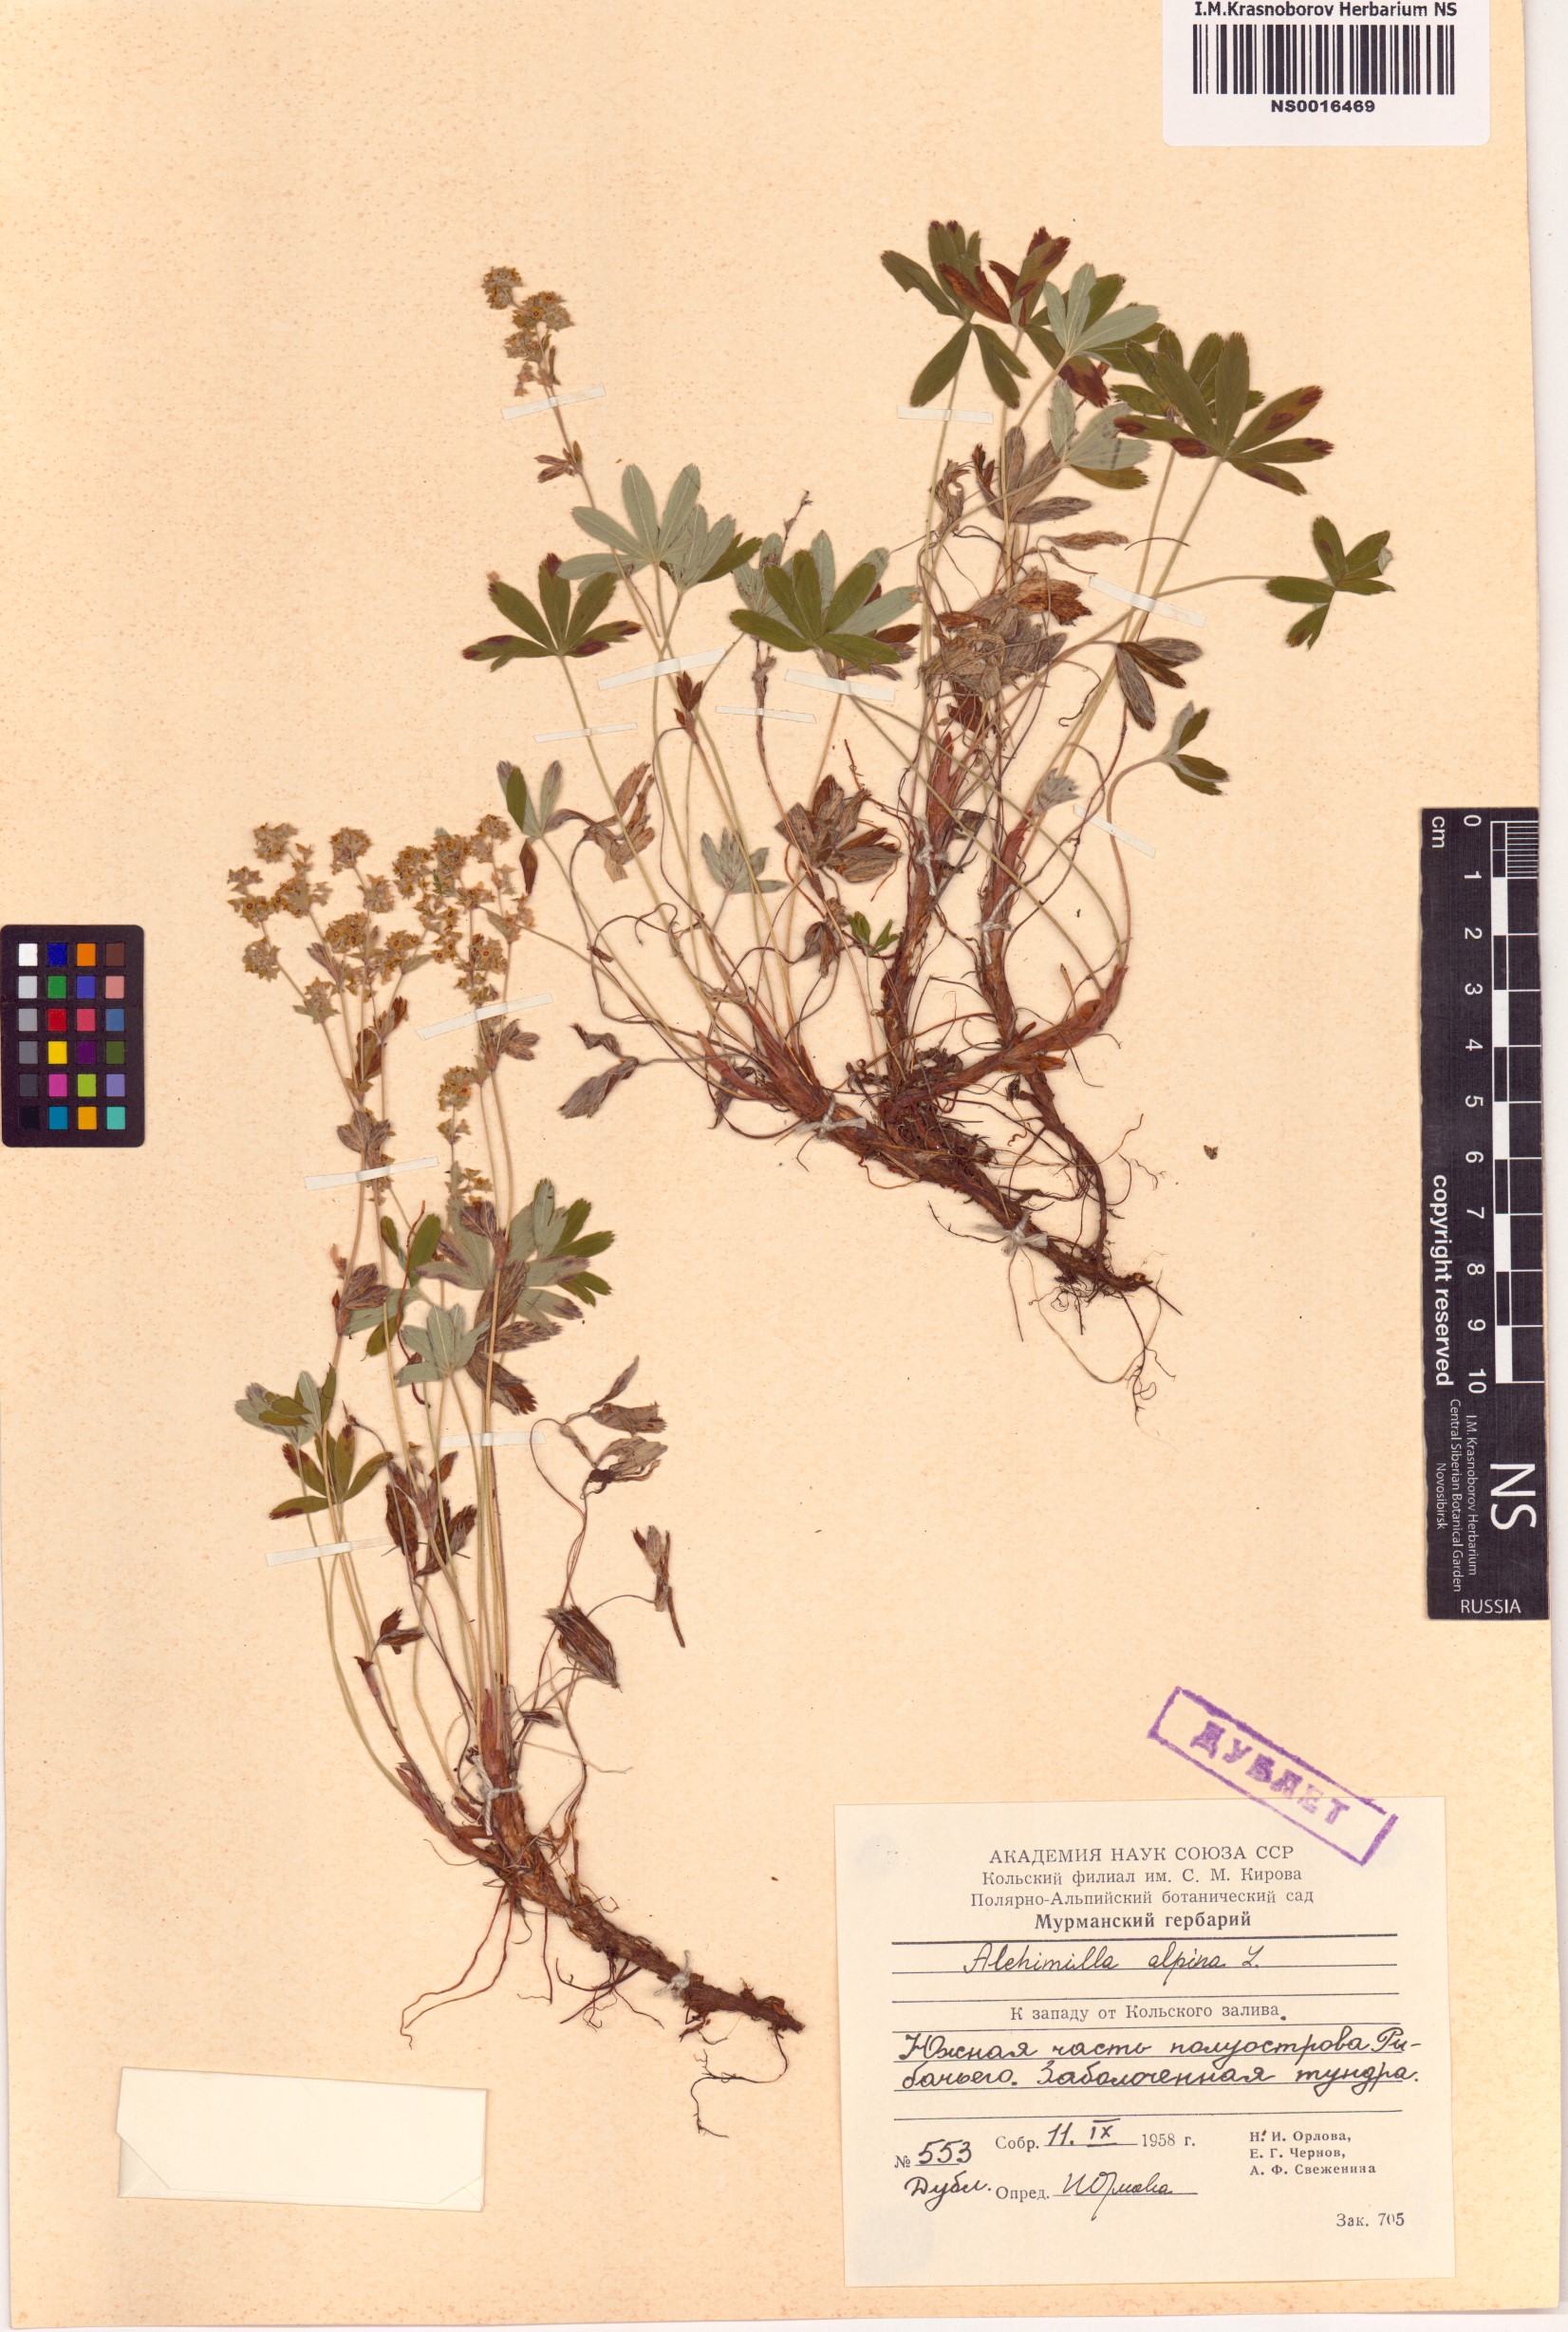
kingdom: Plantae
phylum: Tracheophyta
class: Magnoliopsida
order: Rosales
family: Rosaceae
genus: Alchemilla
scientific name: Alchemilla alpina
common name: Alpine lady's-mantle
